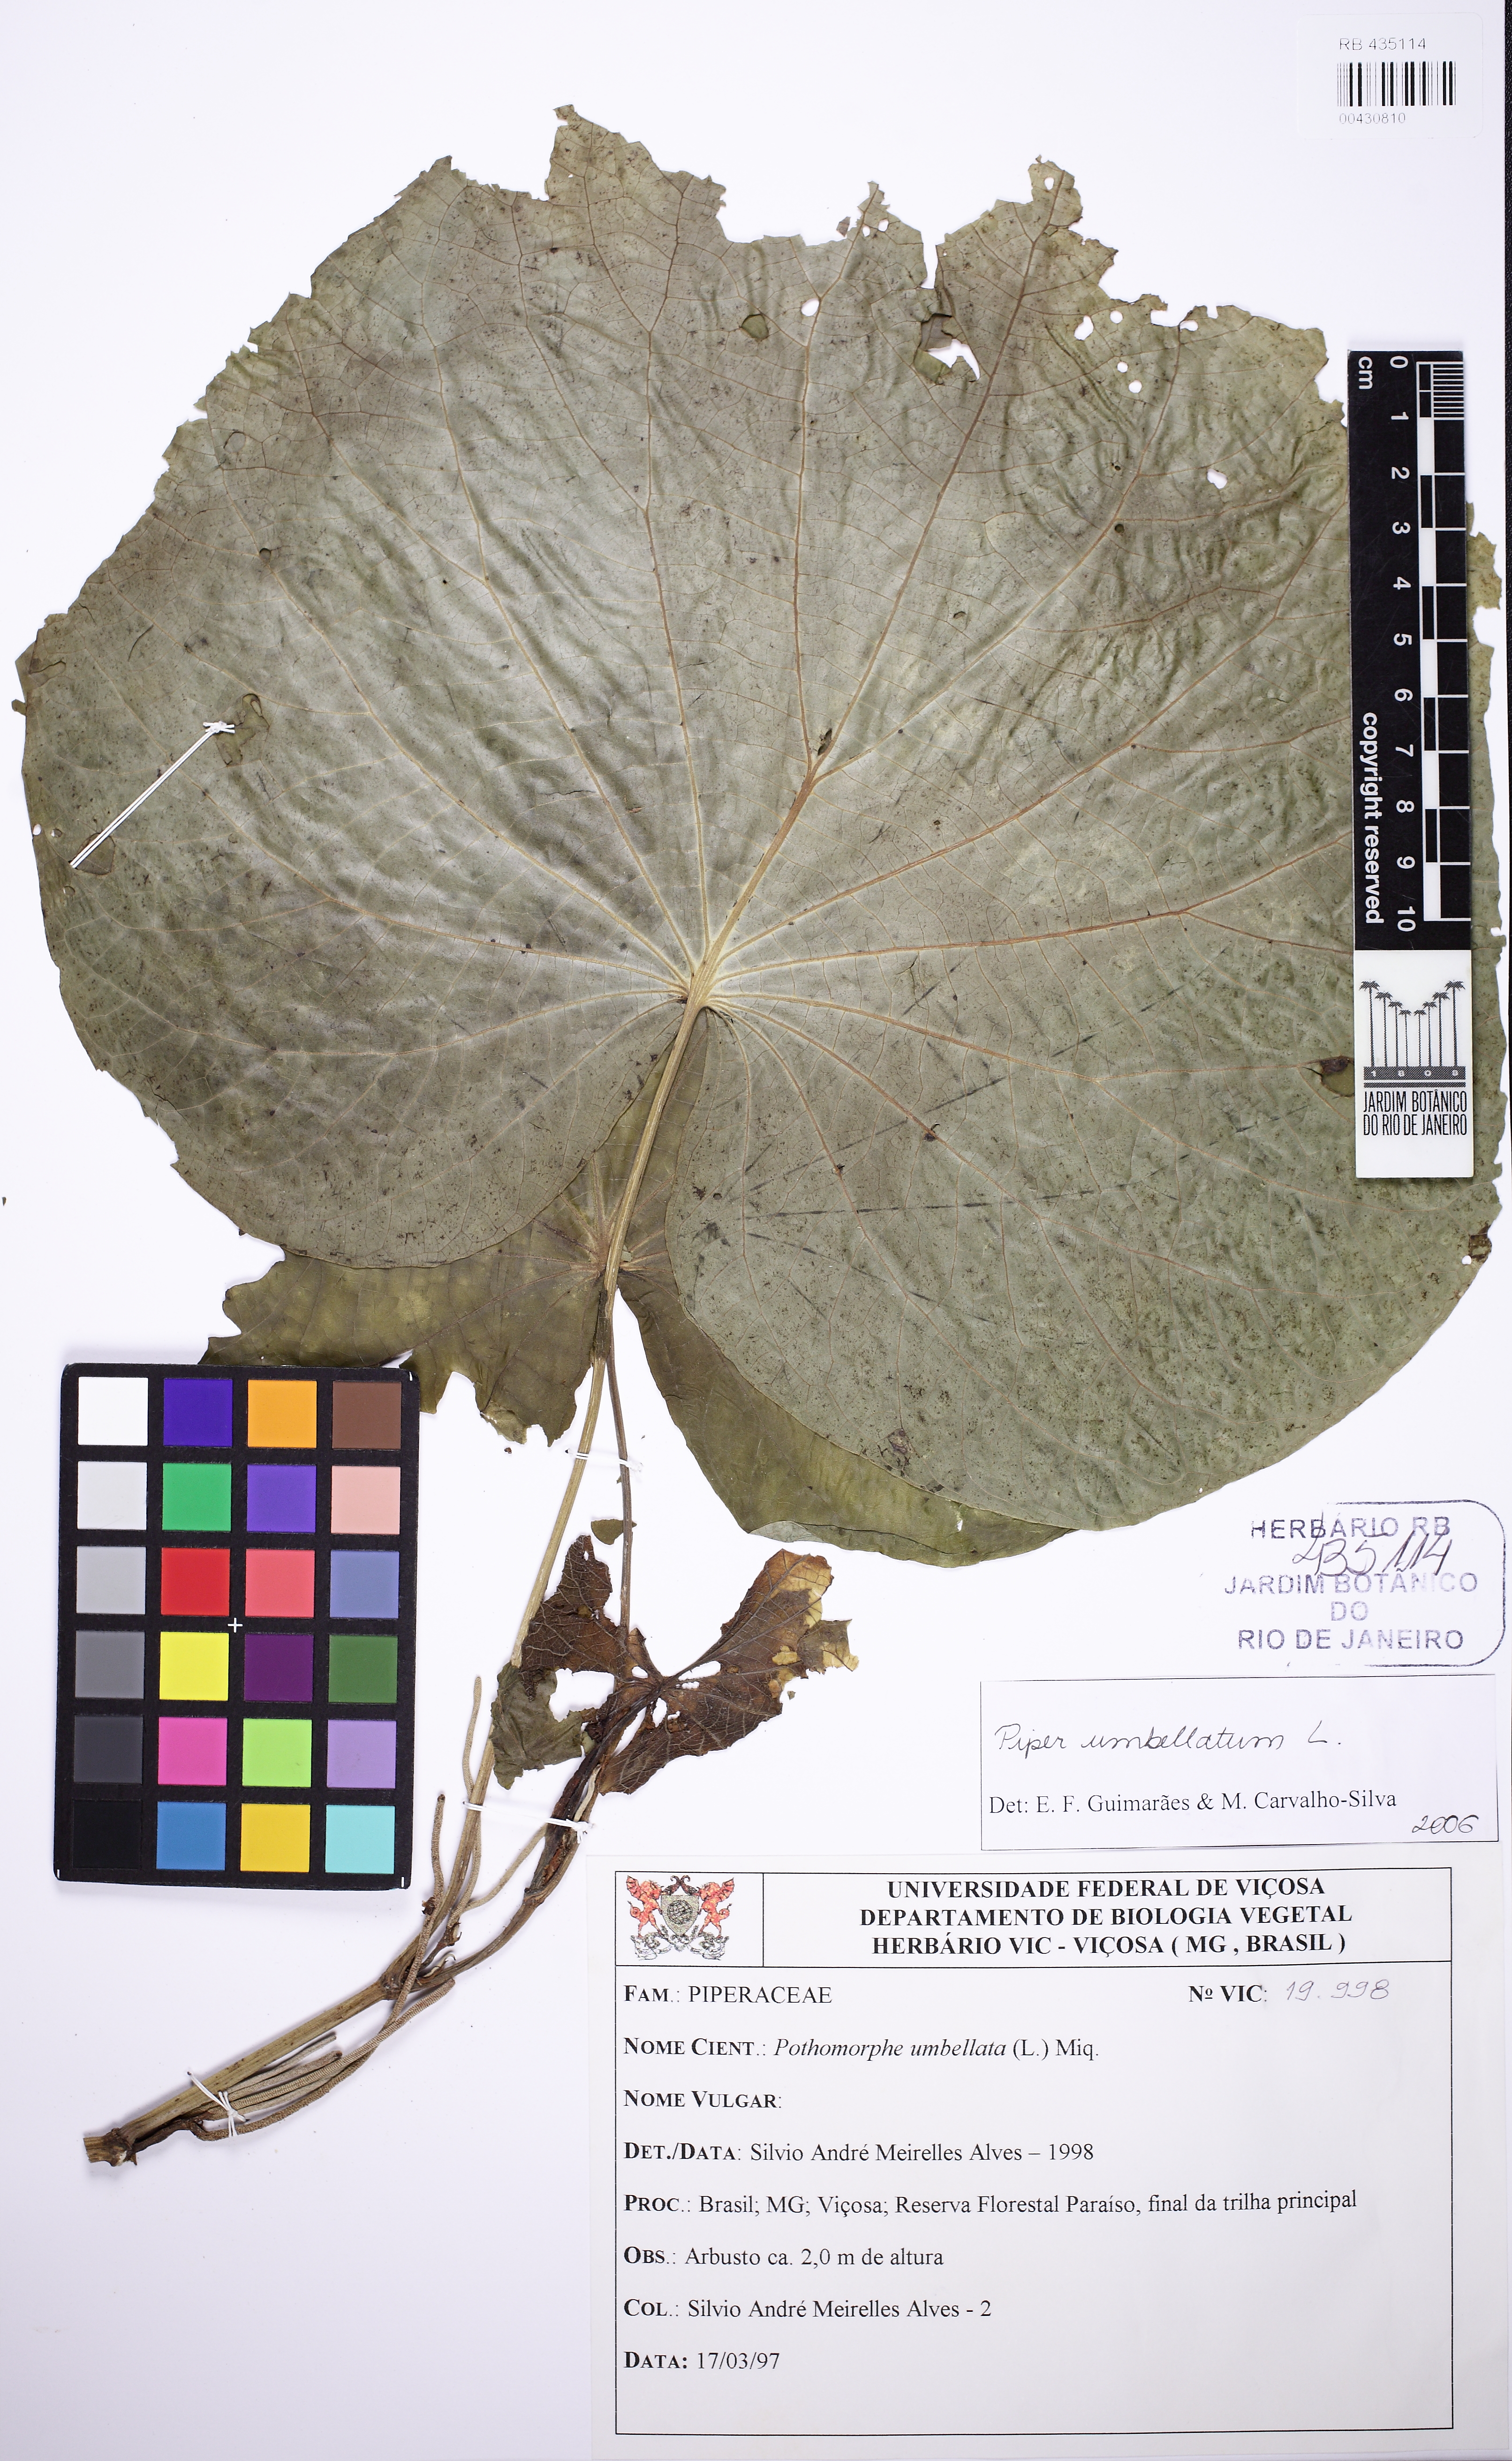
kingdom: Plantae
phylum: Tracheophyta
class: Magnoliopsida
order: Piperales
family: Piperaceae
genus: Piper
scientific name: Piper umbellatum
